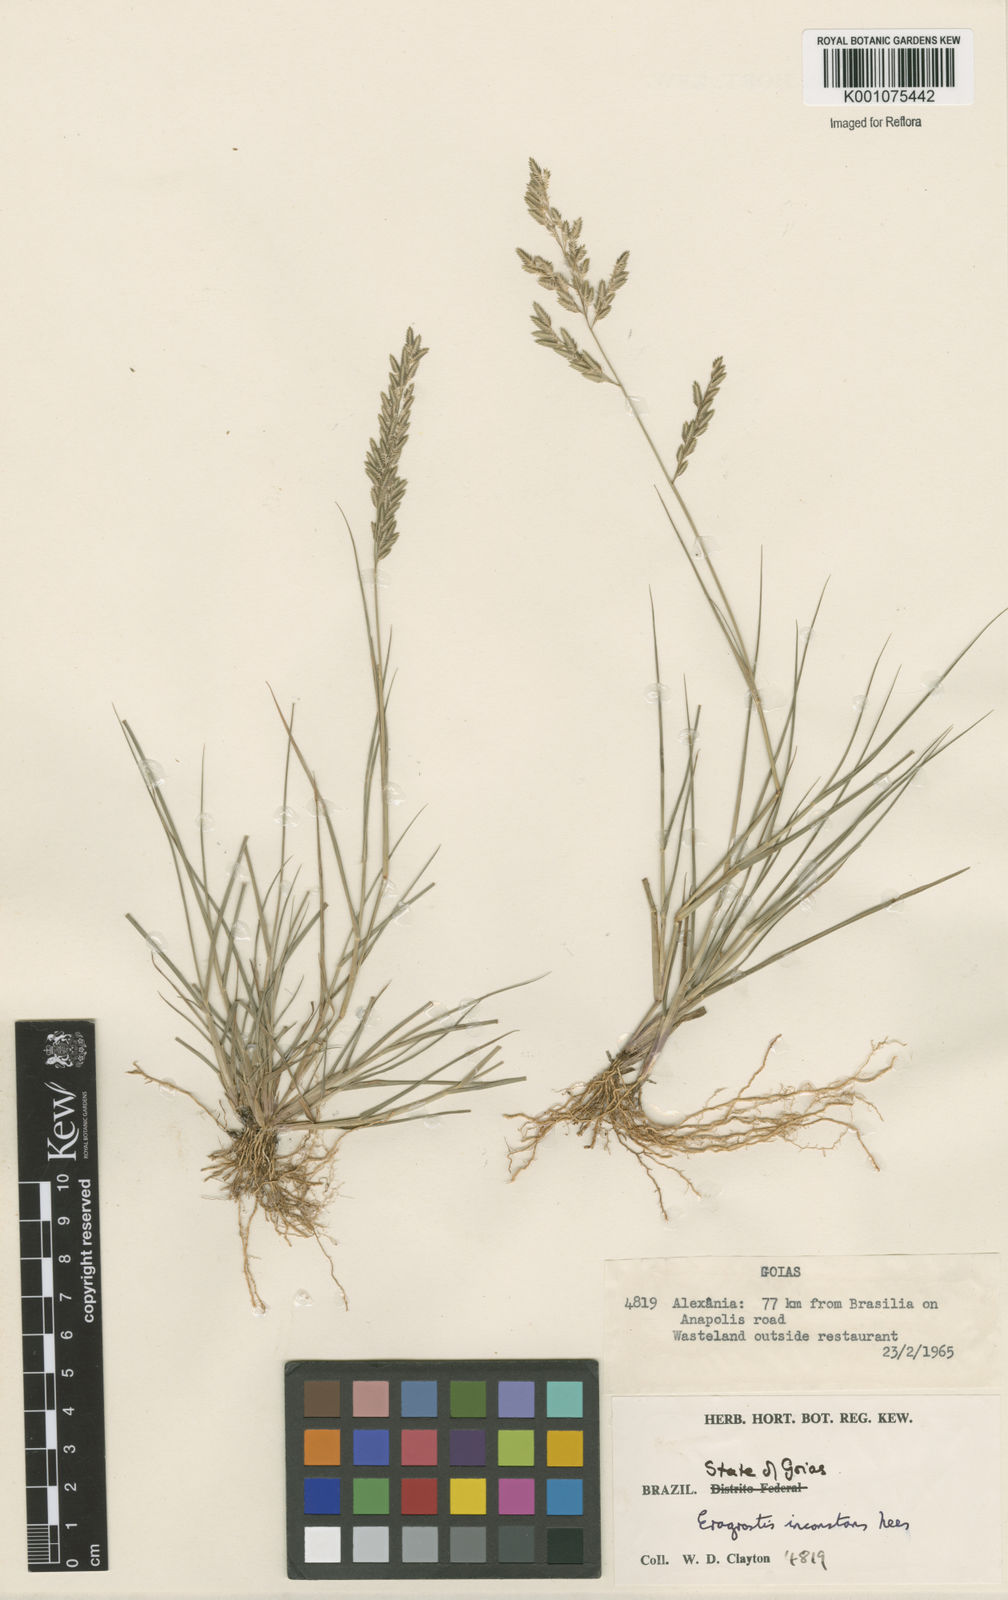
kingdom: Plantae
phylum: Tracheophyta
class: Liliopsida
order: Poales
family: Poaceae
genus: Eragrostis
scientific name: Eragrostis rufescens
